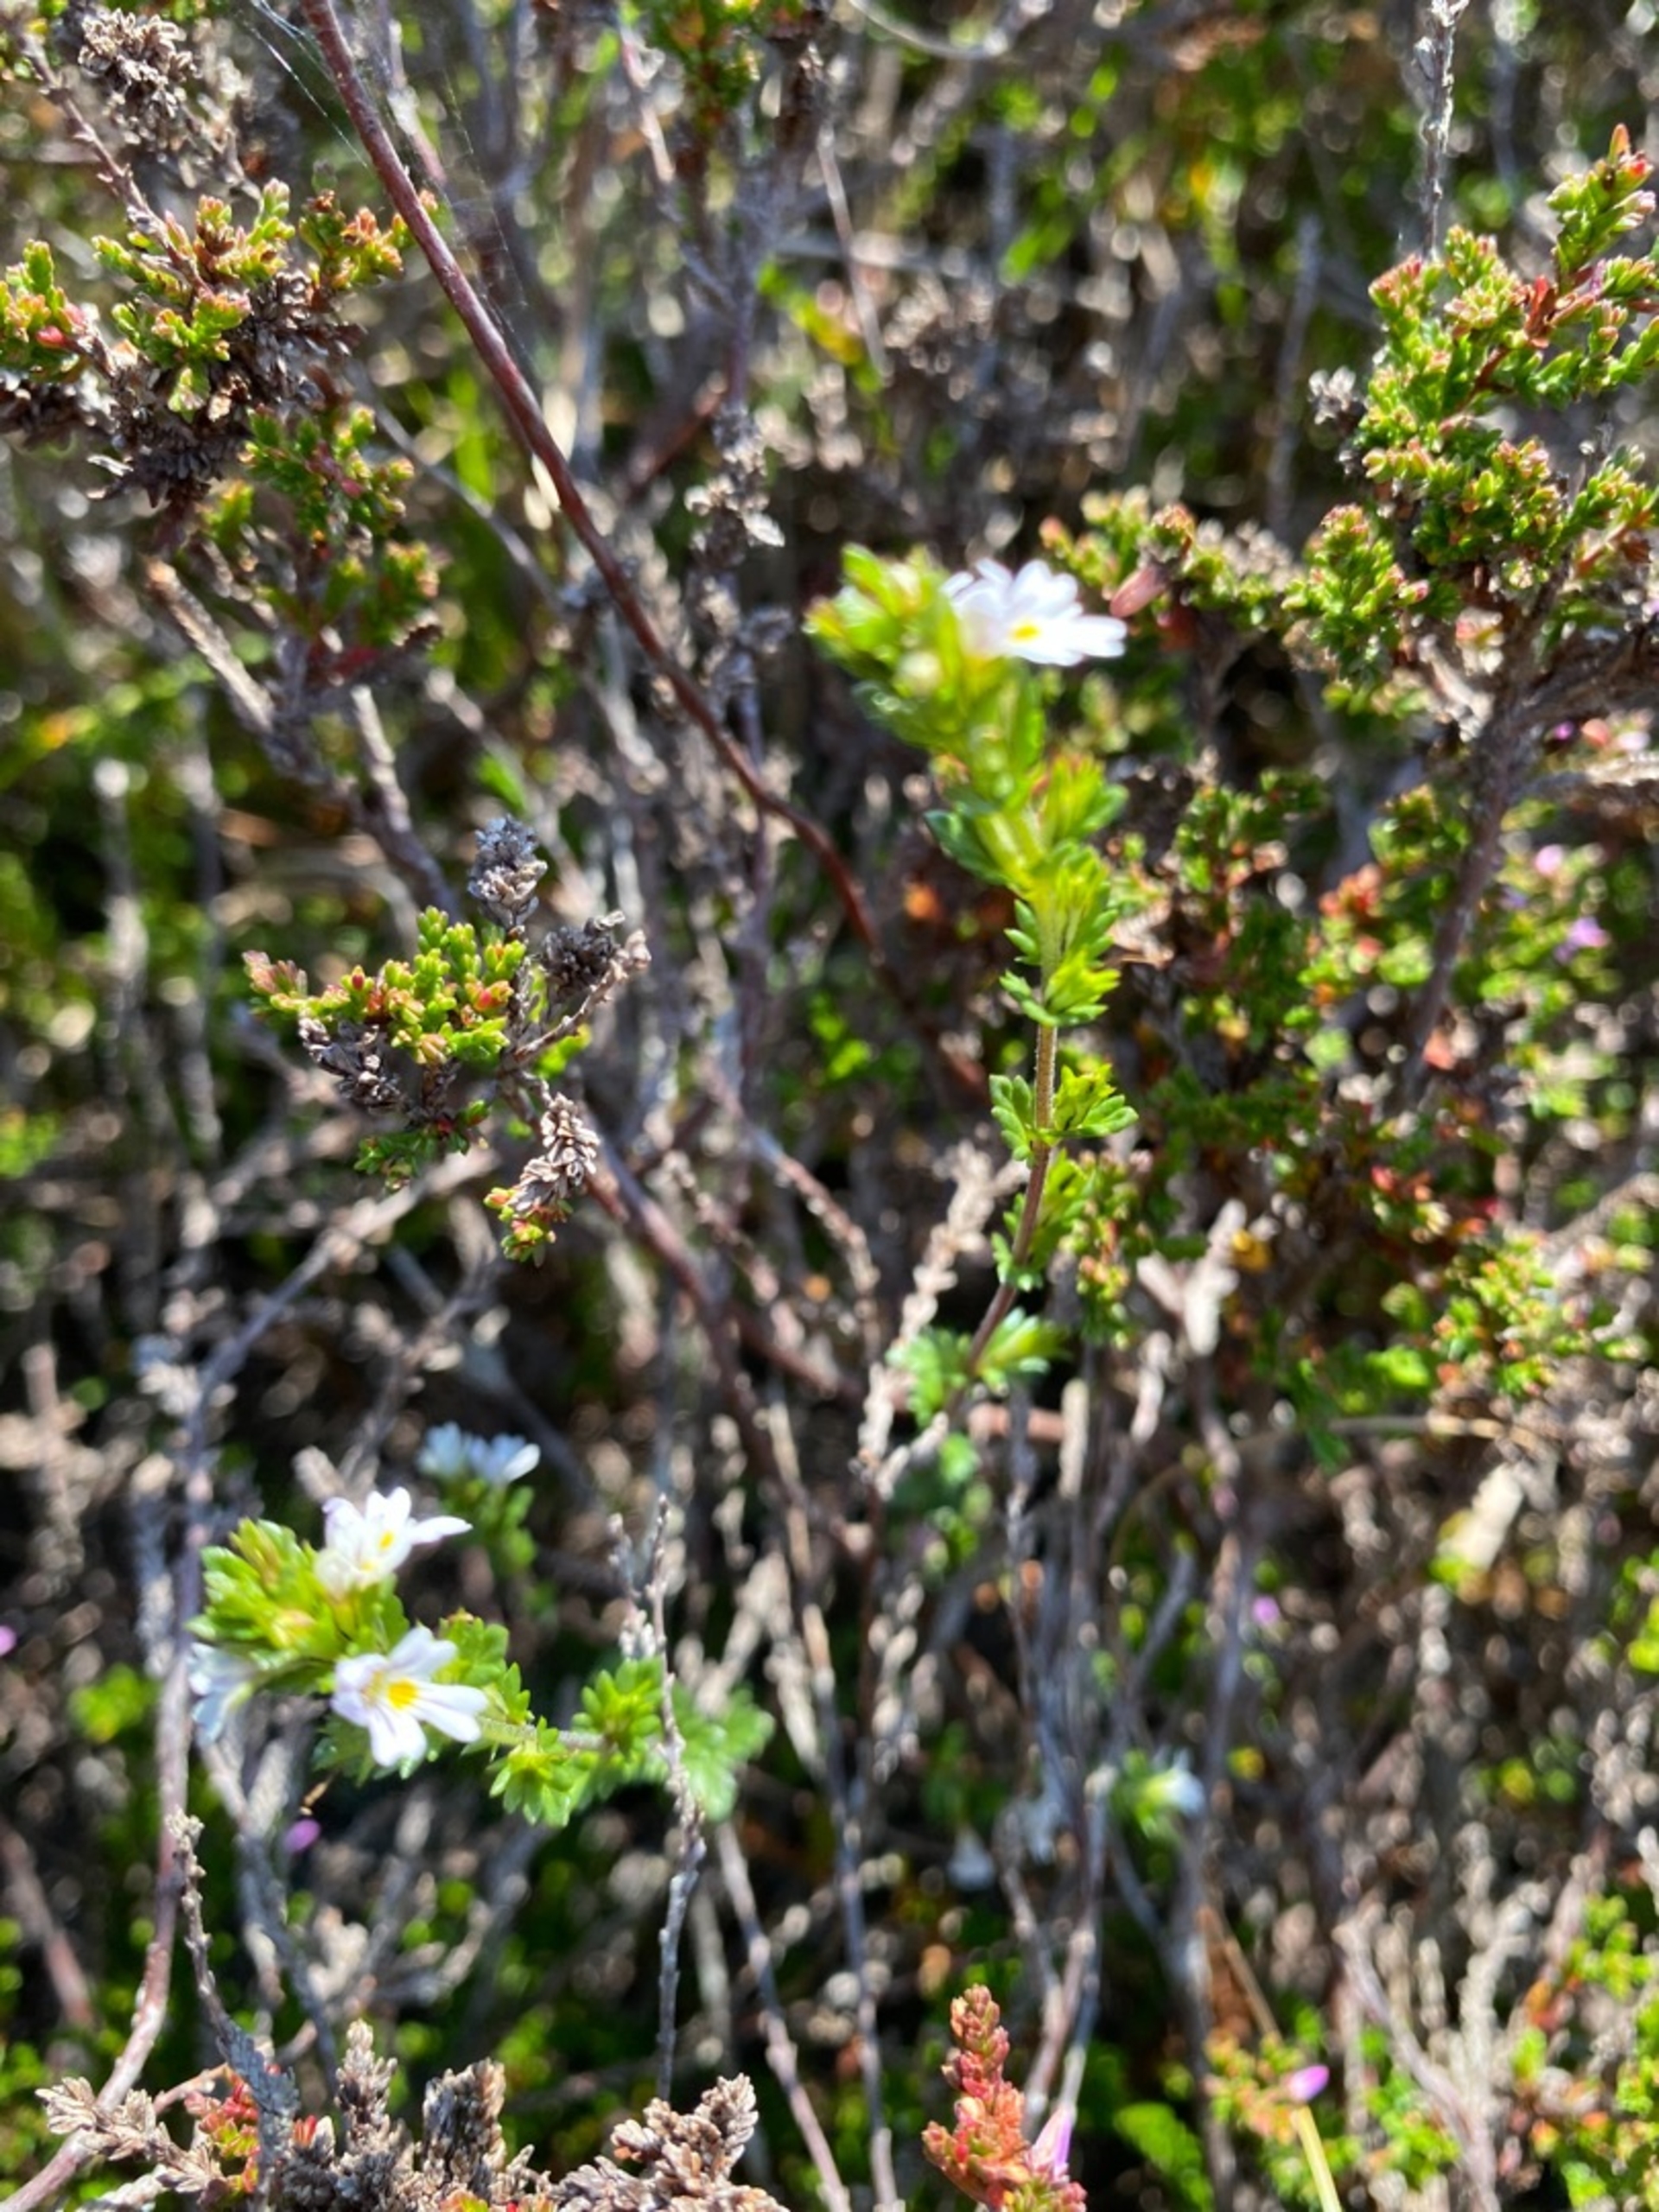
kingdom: Plantae
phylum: Tracheophyta
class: Magnoliopsida
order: Lamiales
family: Orobanchaceae
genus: Euphrasia
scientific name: Euphrasia nemorosa
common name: Kort øjentrøst
